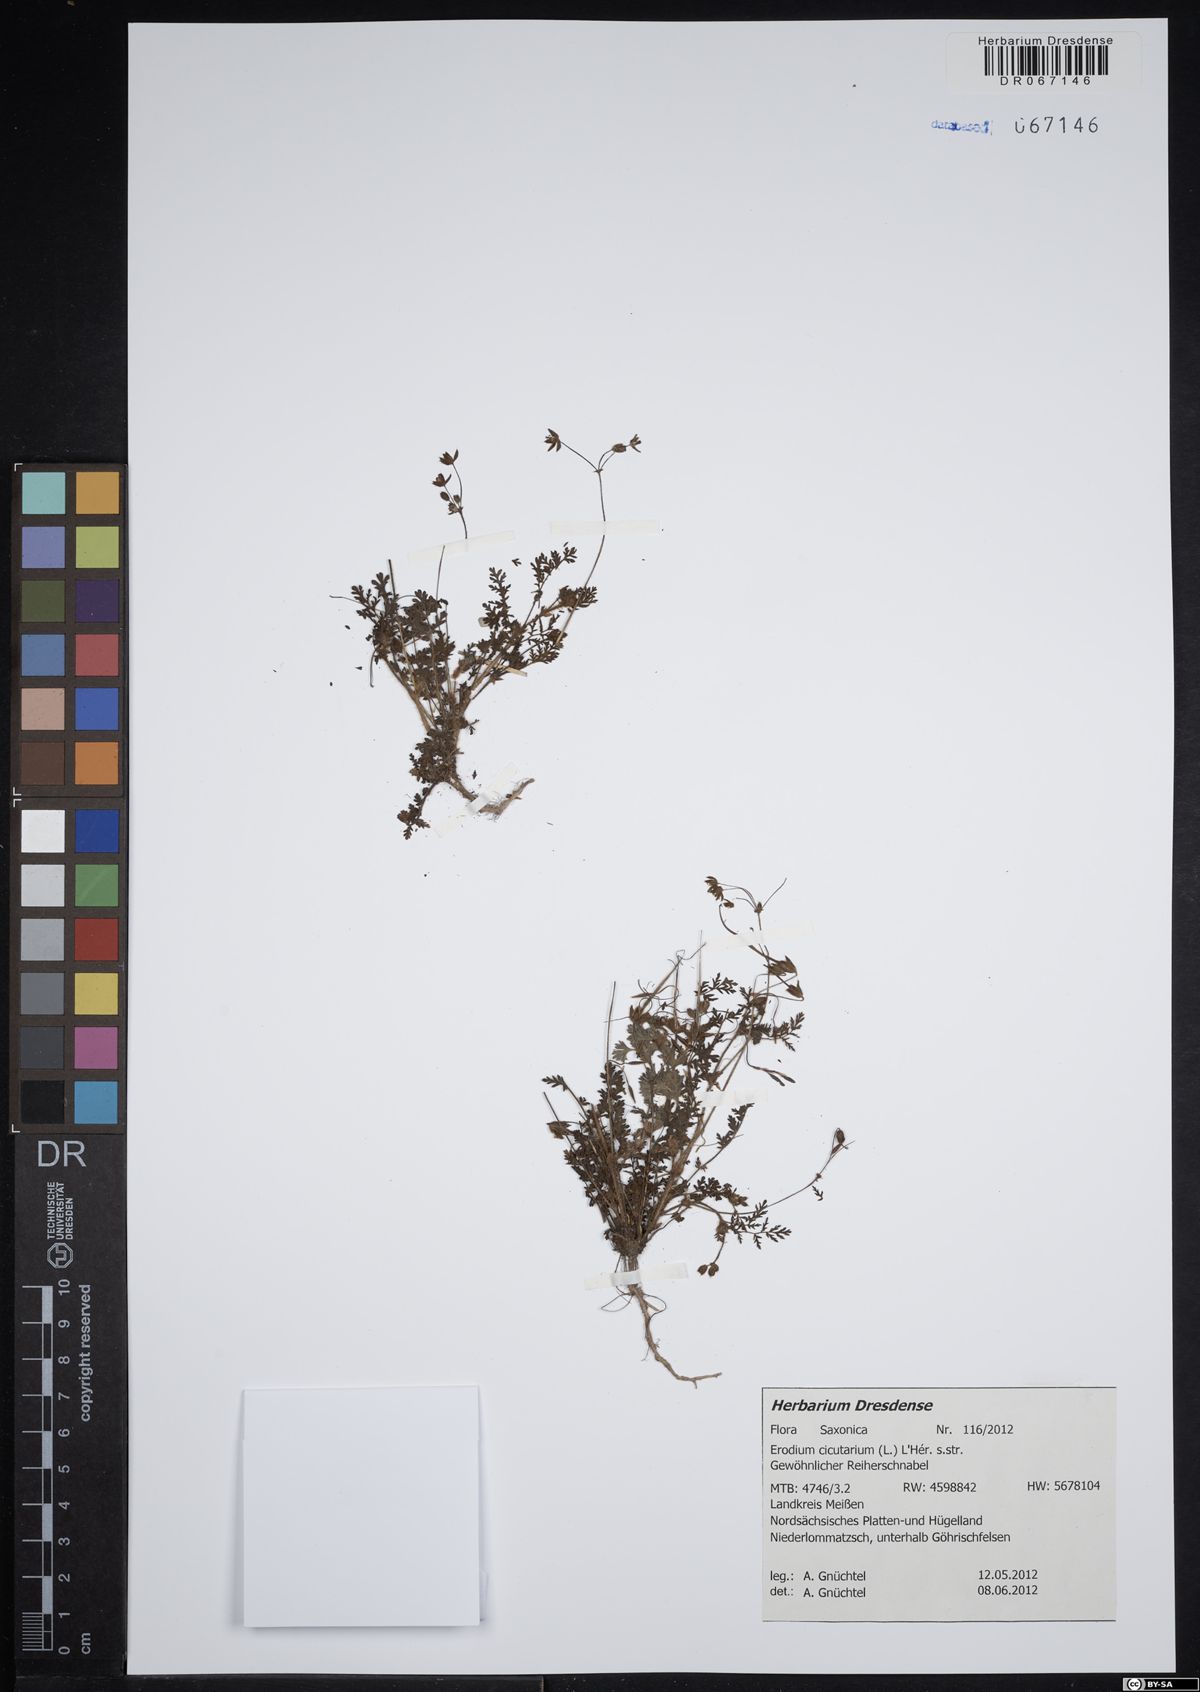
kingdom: Plantae
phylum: Tracheophyta
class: Magnoliopsida
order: Geraniales
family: Geraniaceae
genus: Erodium
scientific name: Erodium cicutarium
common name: Common stork's-bill
